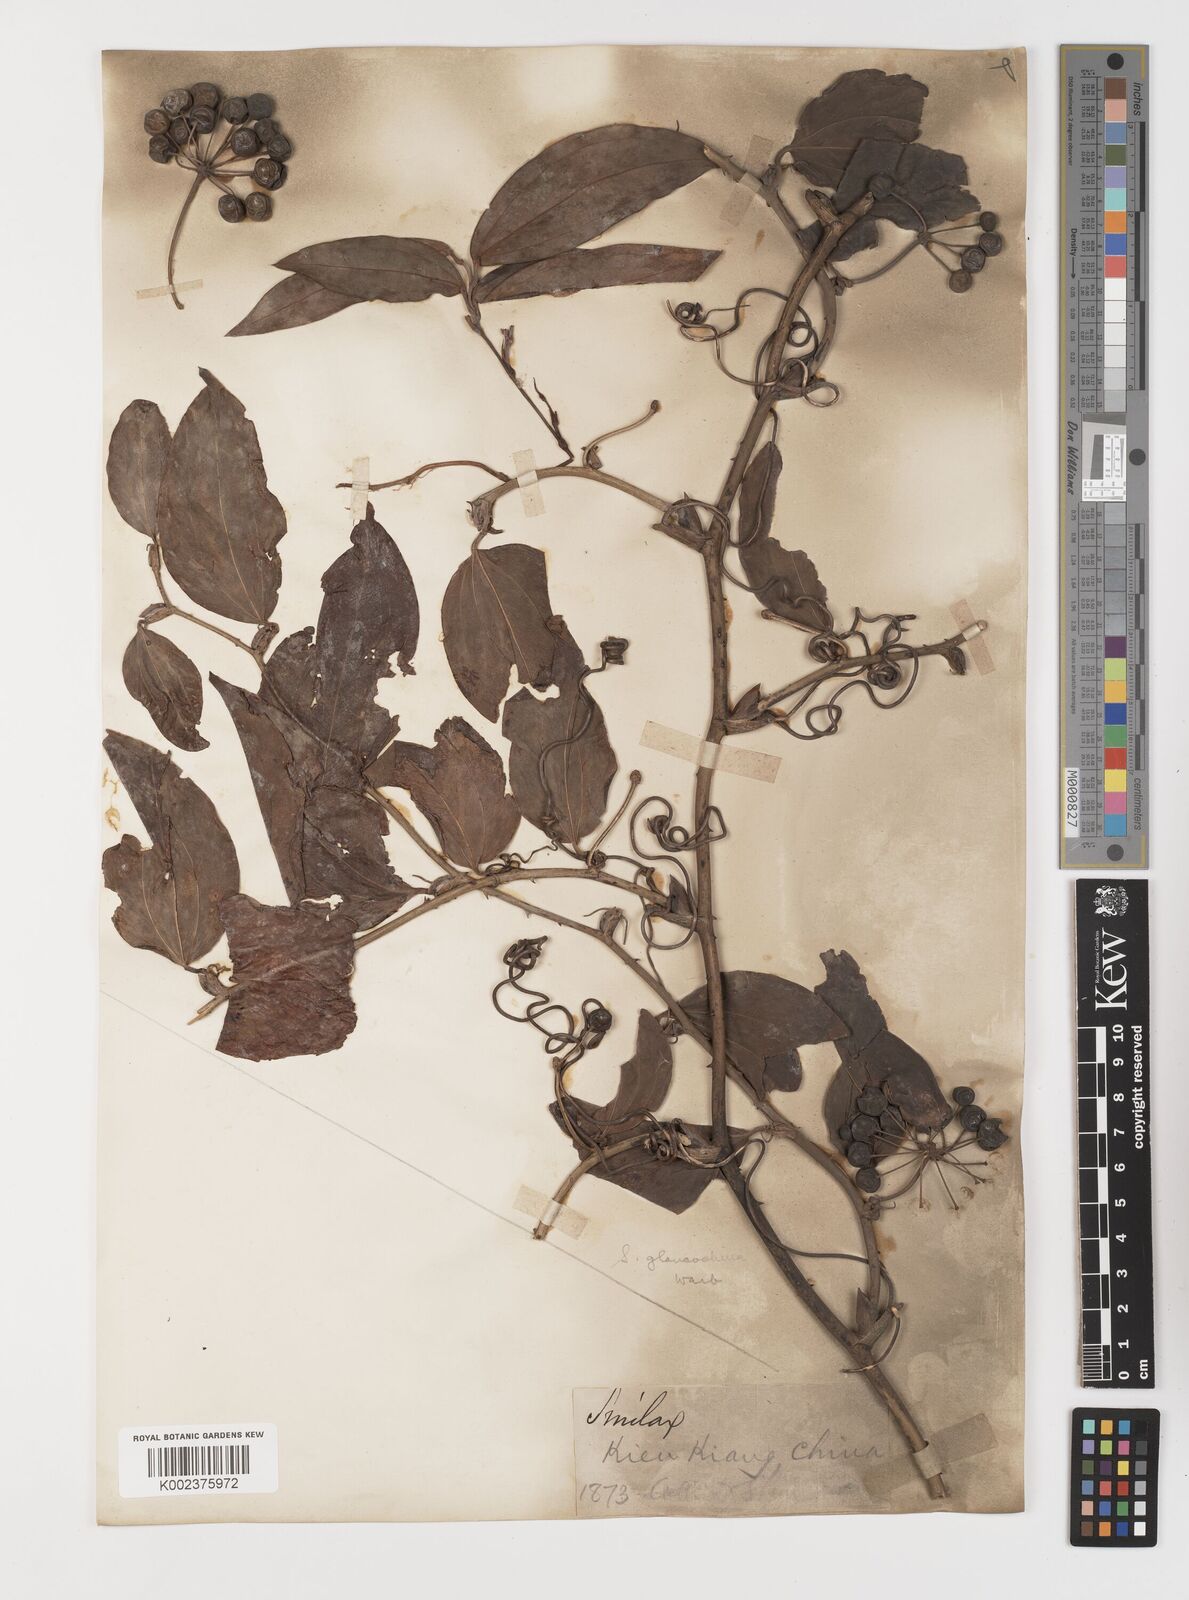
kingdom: Plantae
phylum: Tracheophyta
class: Liliopsida
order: Liliales
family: Smilacaceae
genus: Smilax
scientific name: Smilax glaucochina
